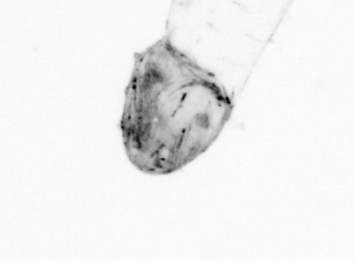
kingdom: Animalia
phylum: Chaetognatha
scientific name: Chaetognatha
